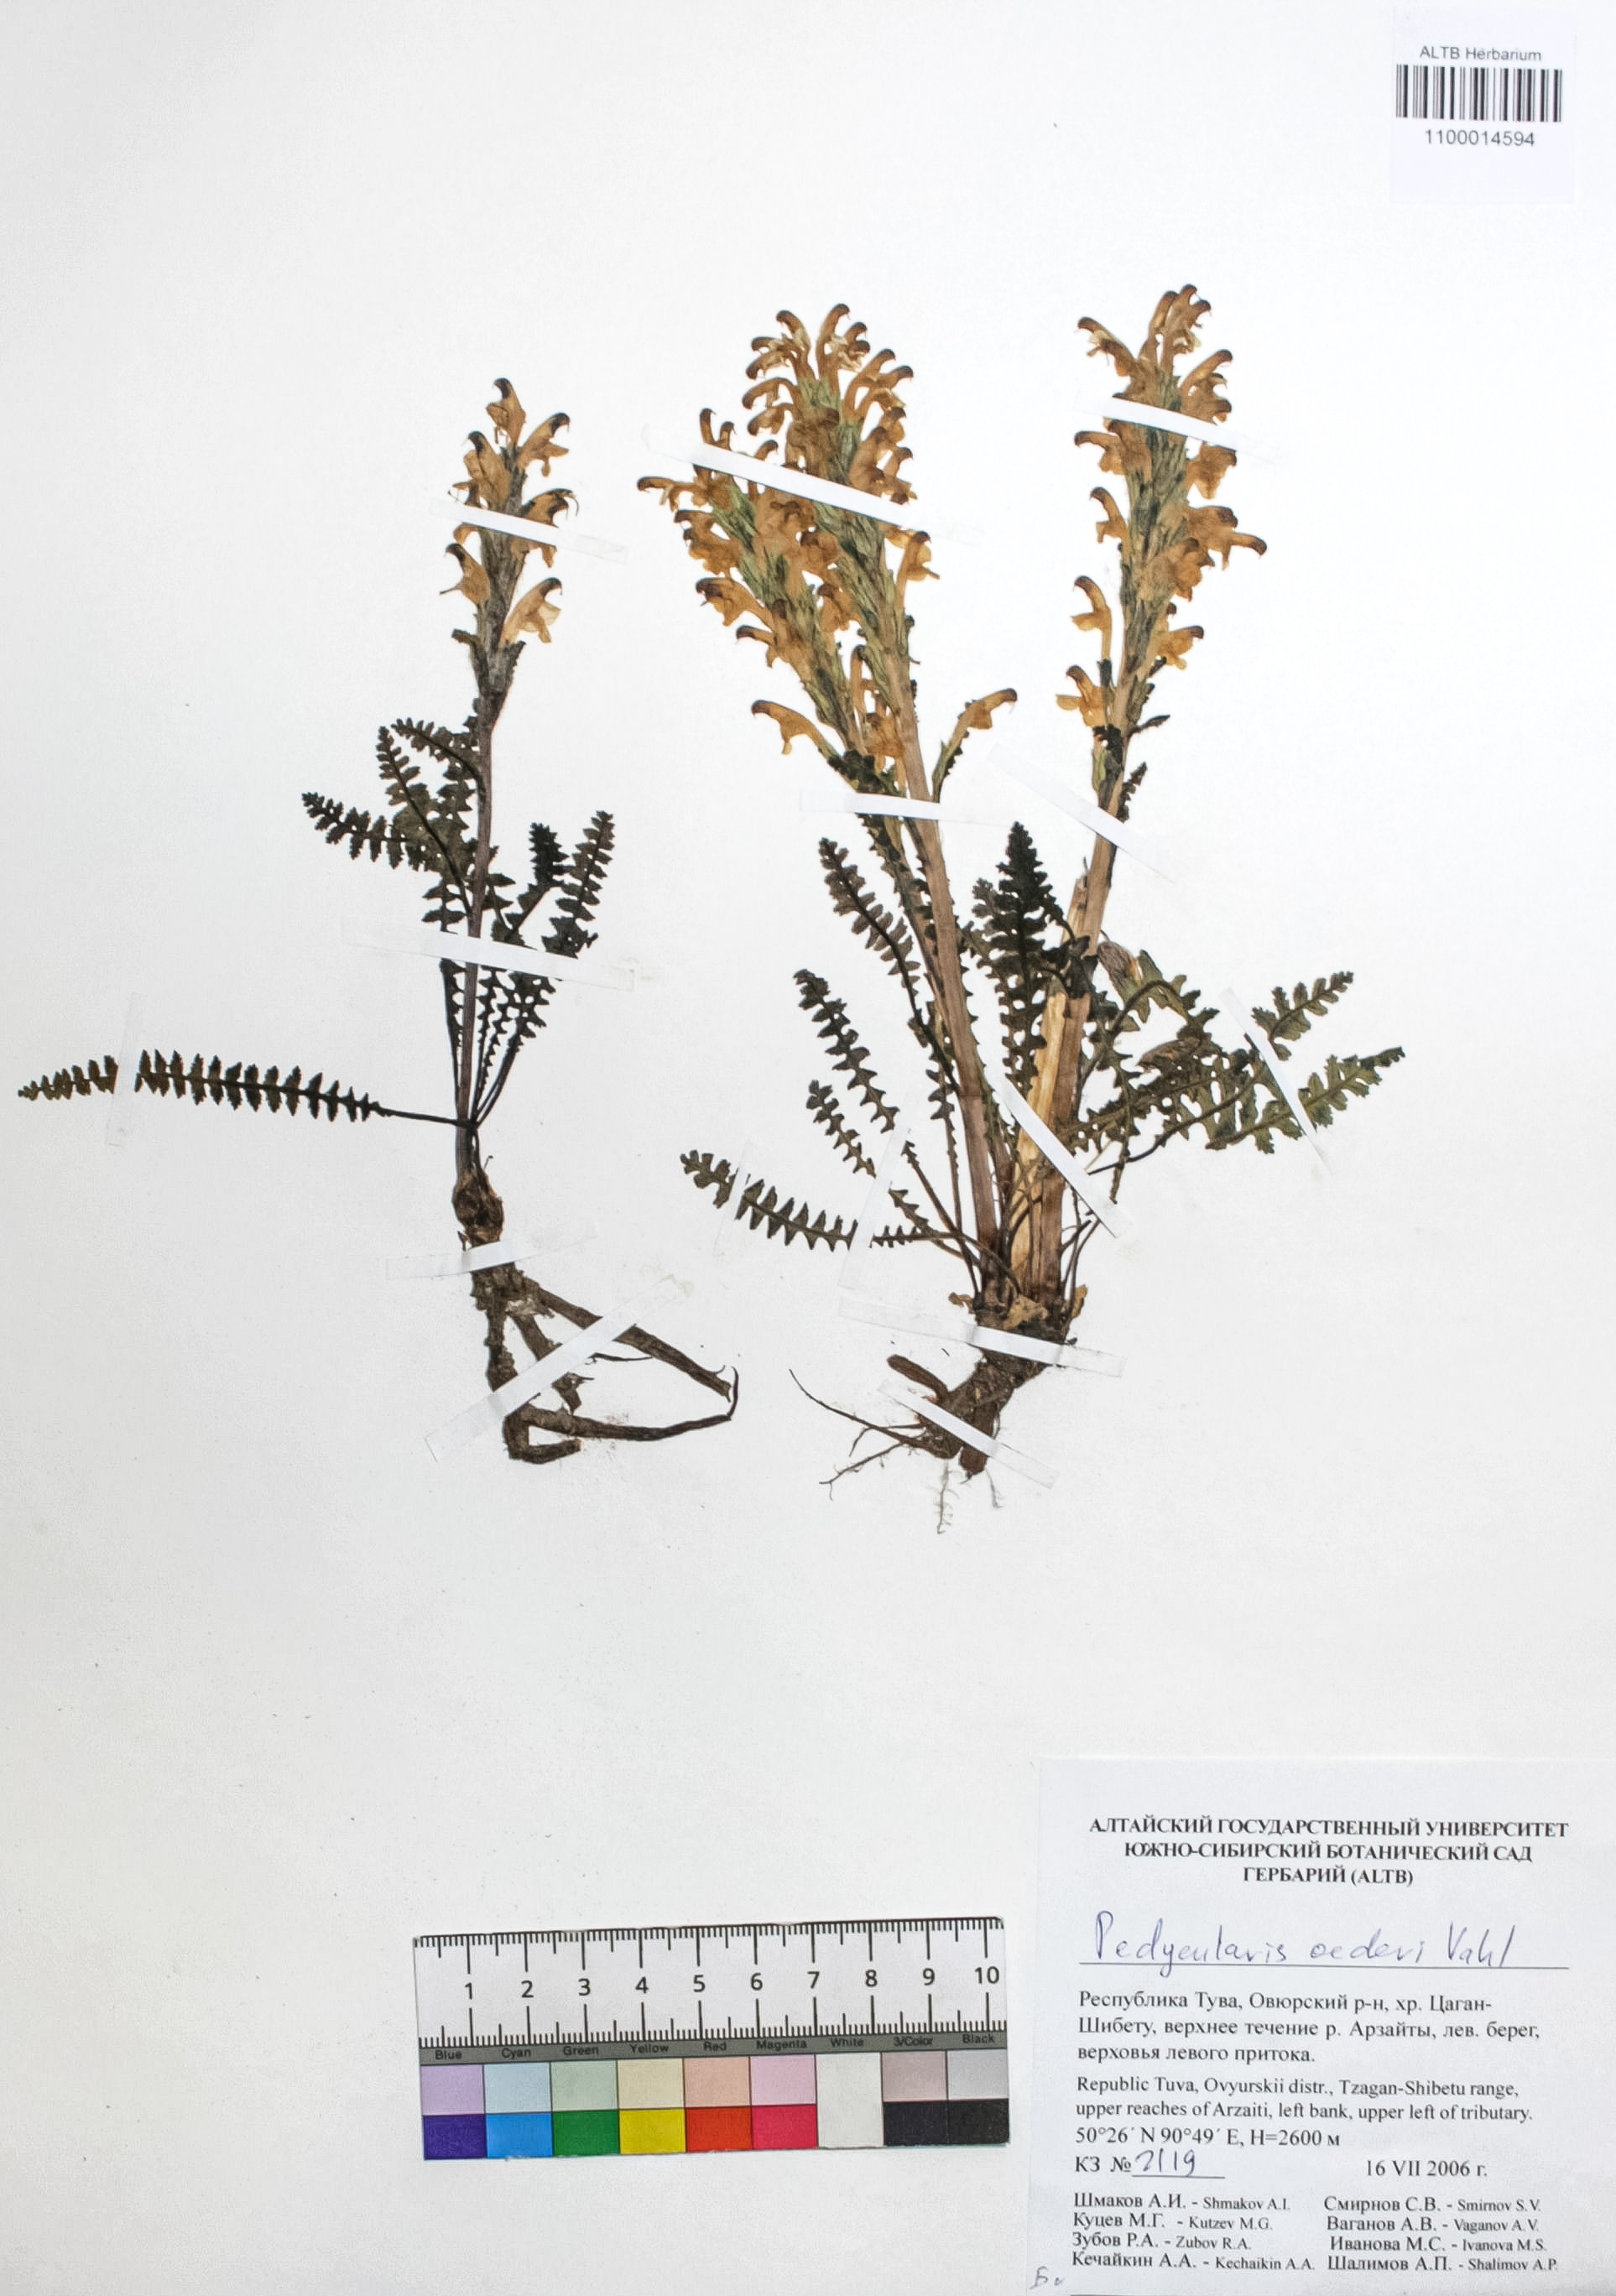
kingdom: Plantae
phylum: Tracheophyta
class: Magnoliopsida
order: Caryophyllales
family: Caryophyllaceae
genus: Silene
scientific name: Silene graminifolia
